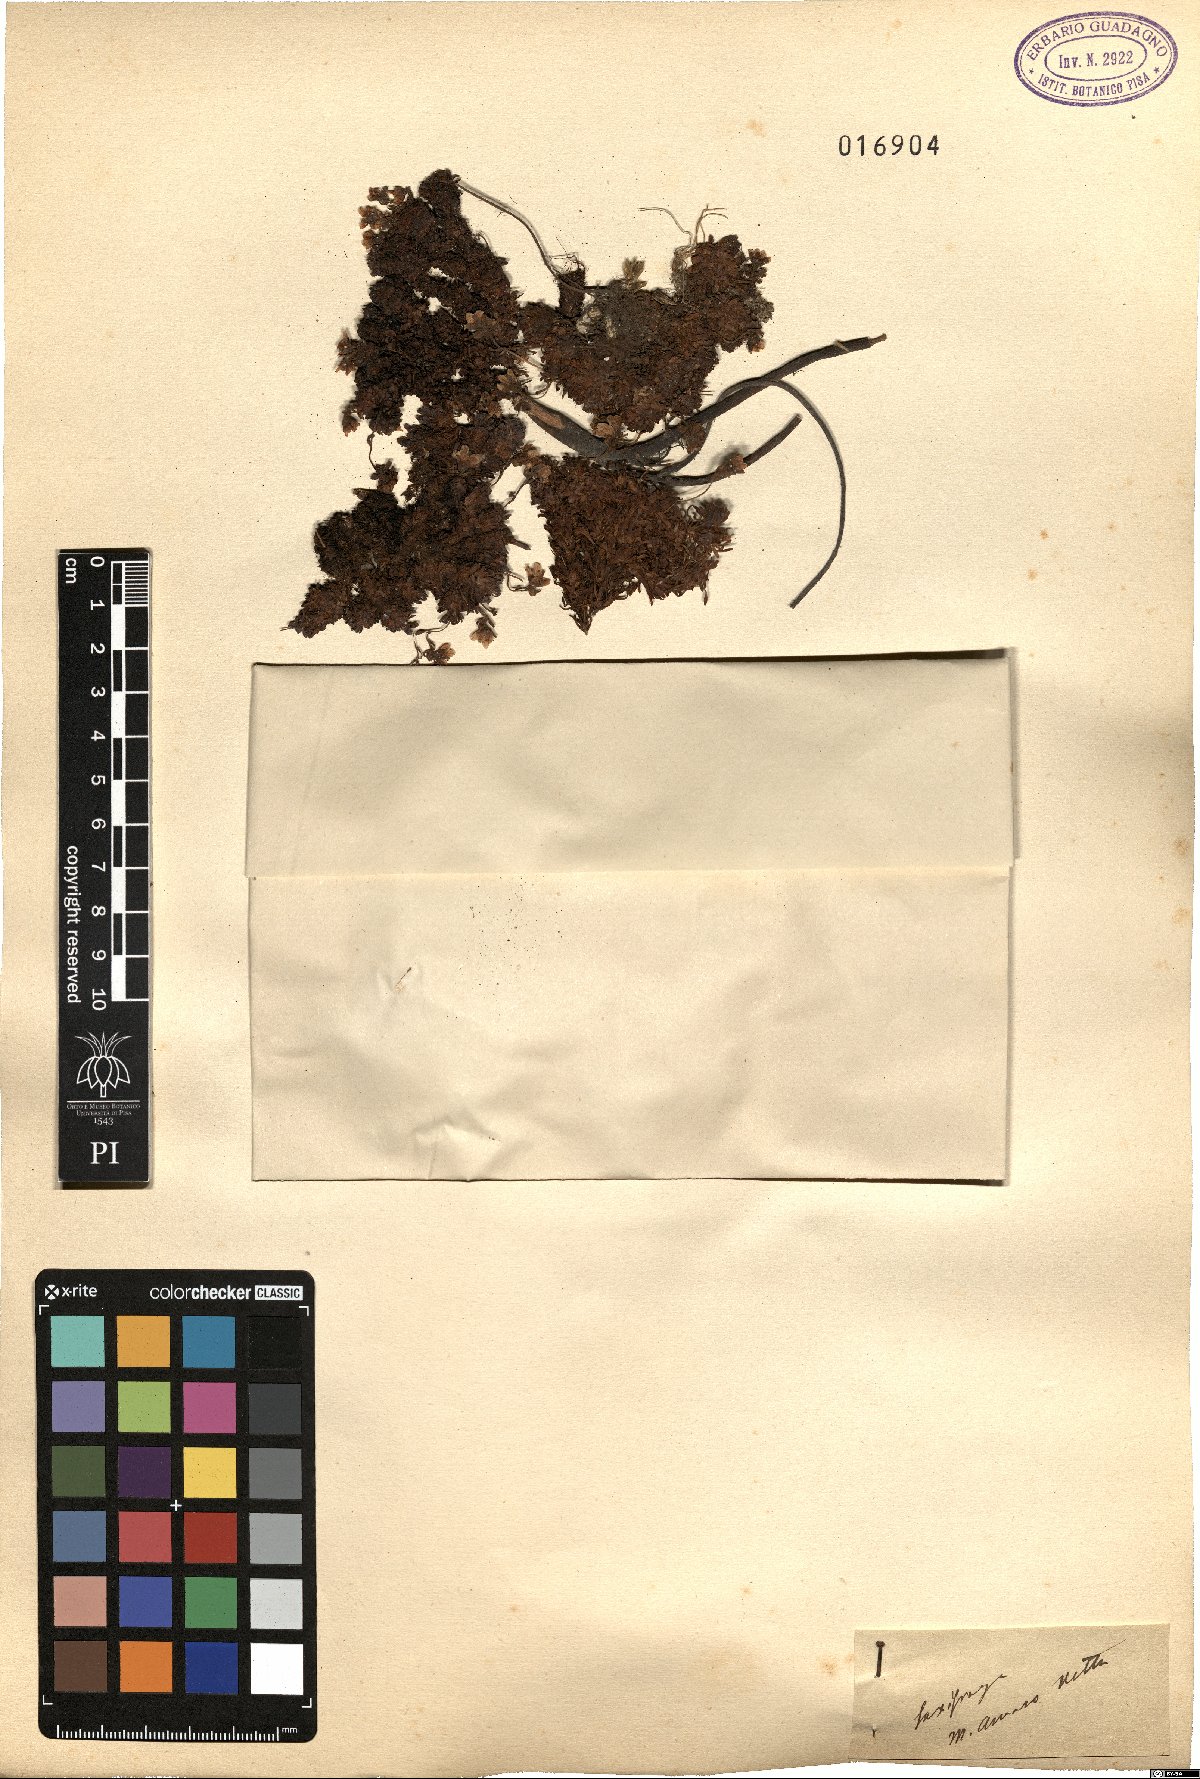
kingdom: Plantae
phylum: Tracheophyta
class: Magnoliopsida
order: Saxifragales
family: Saxifragaceae
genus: Saxifraga
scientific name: Saxifraga
